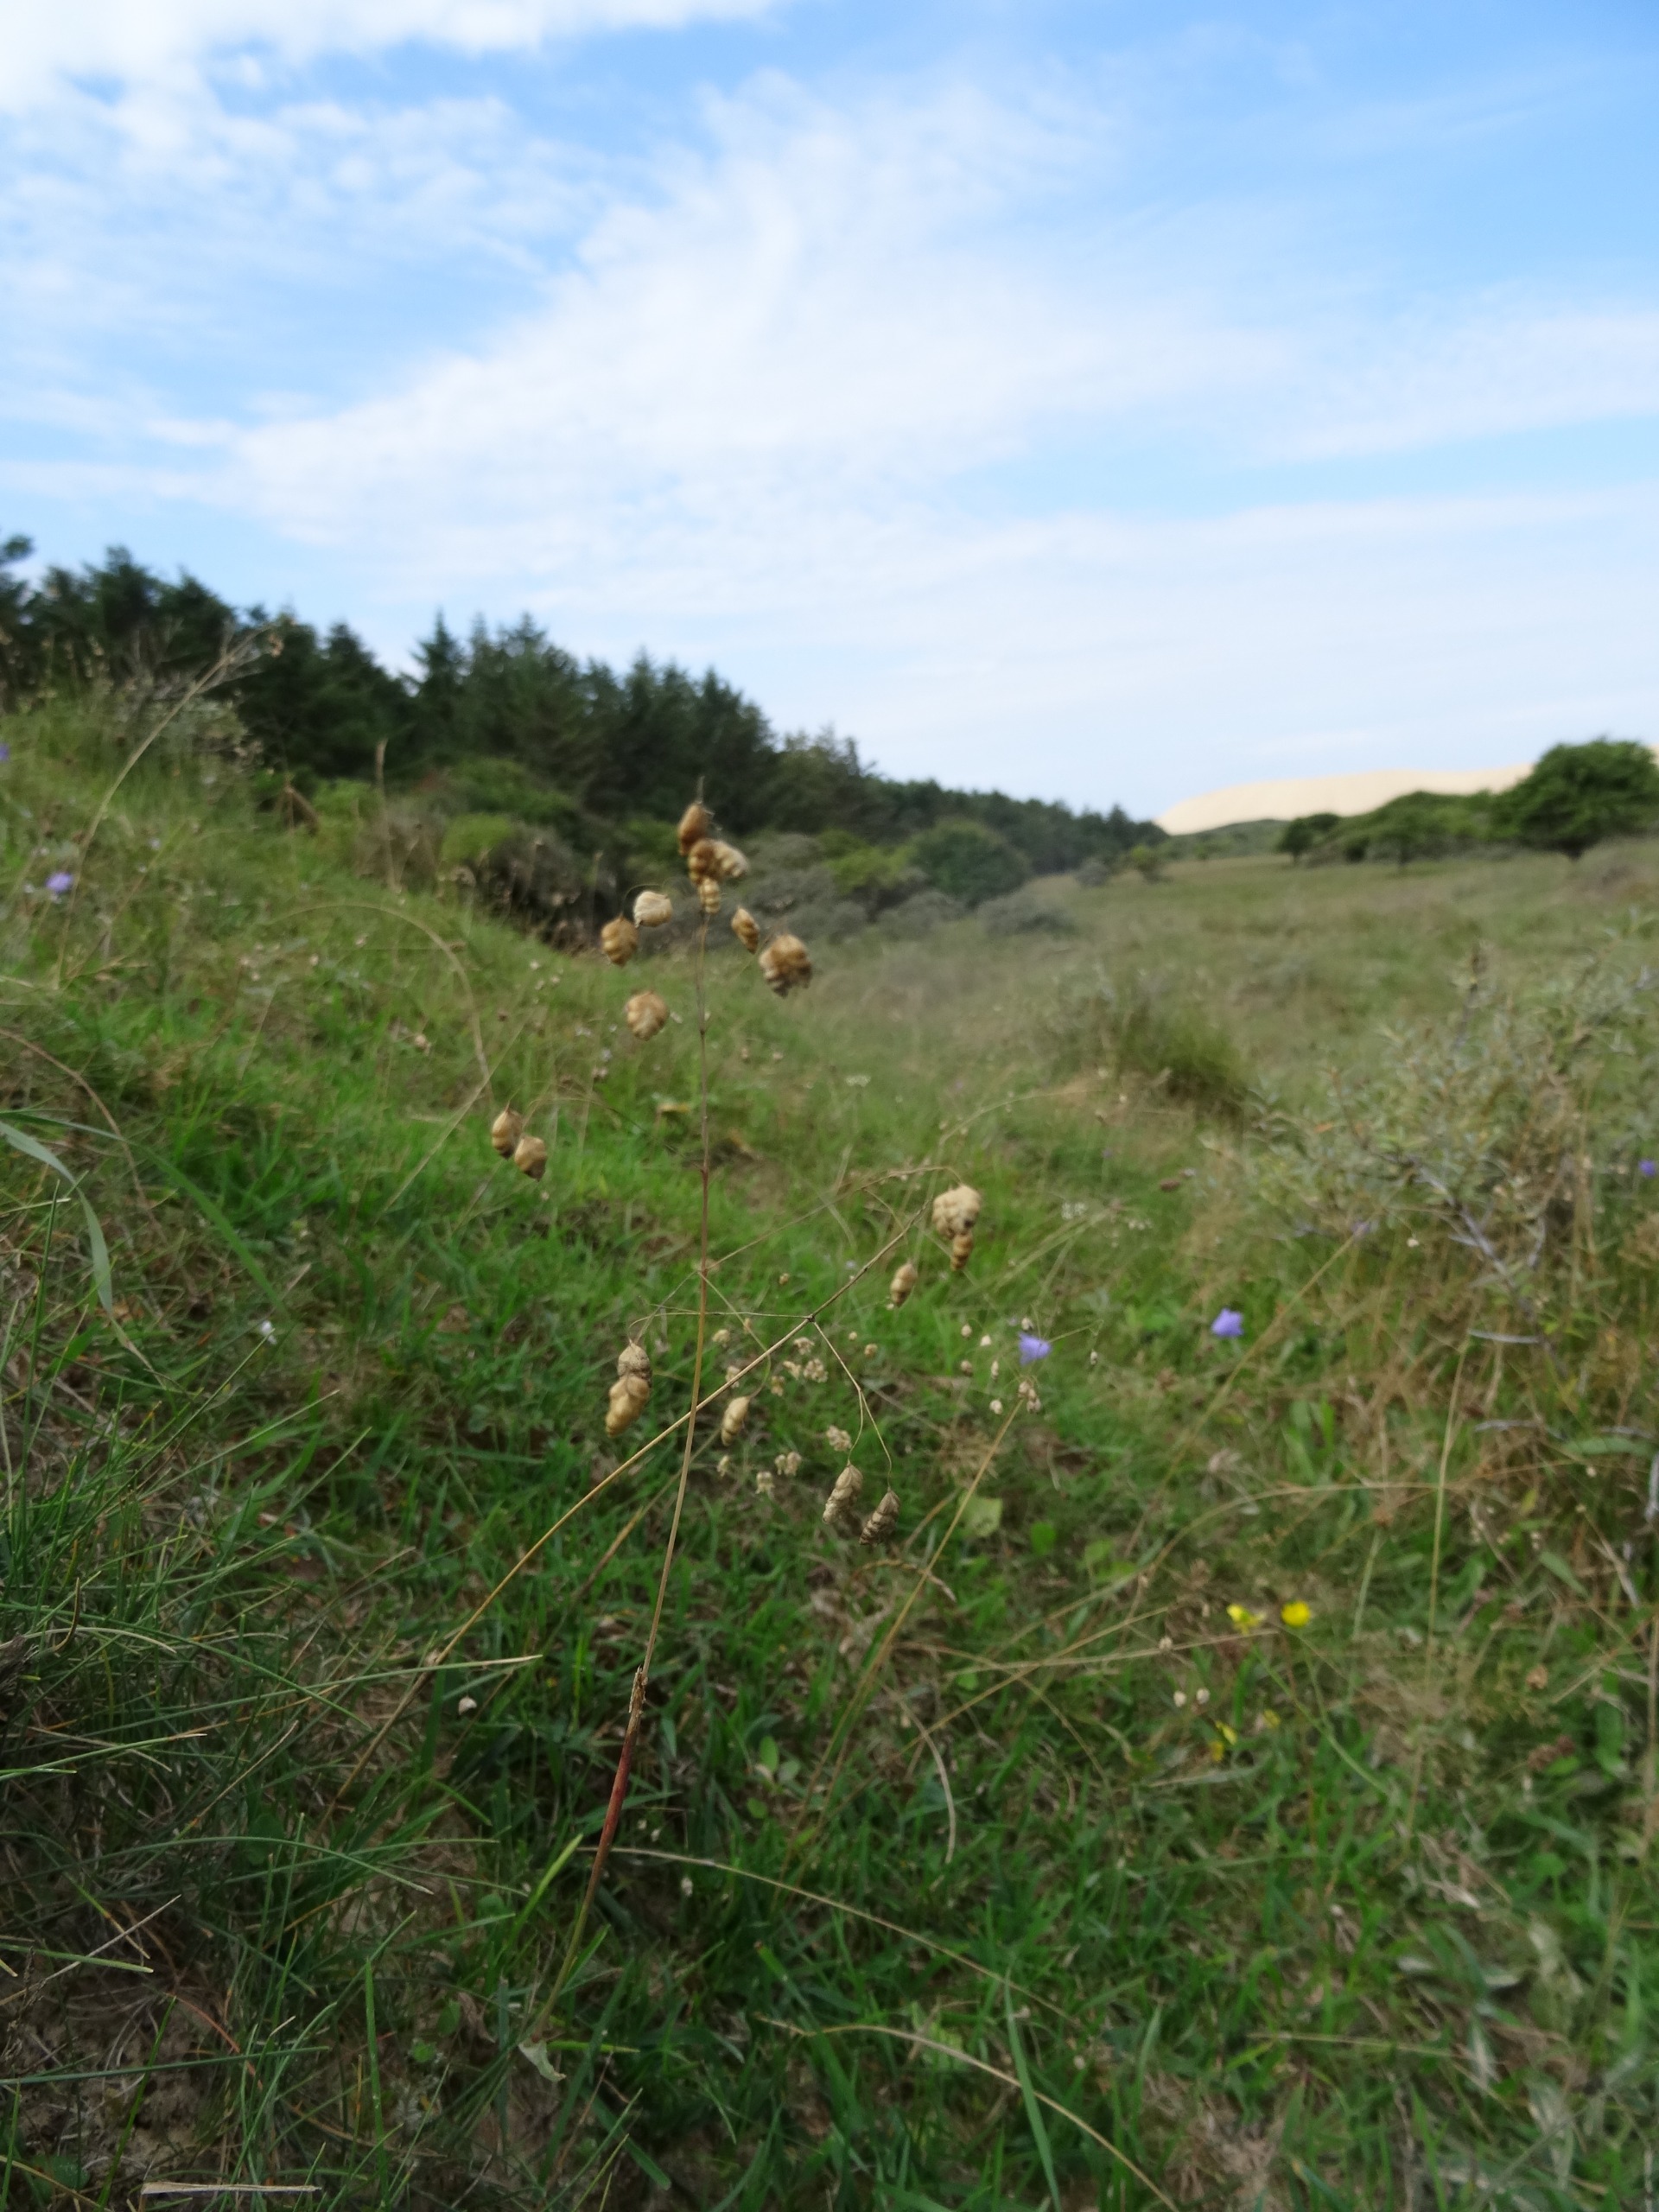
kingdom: Plantae
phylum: Tracheophyta
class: Liliopsida
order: Poales
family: Poaceae
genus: Briza
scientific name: Briza media
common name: Hjertegræs
